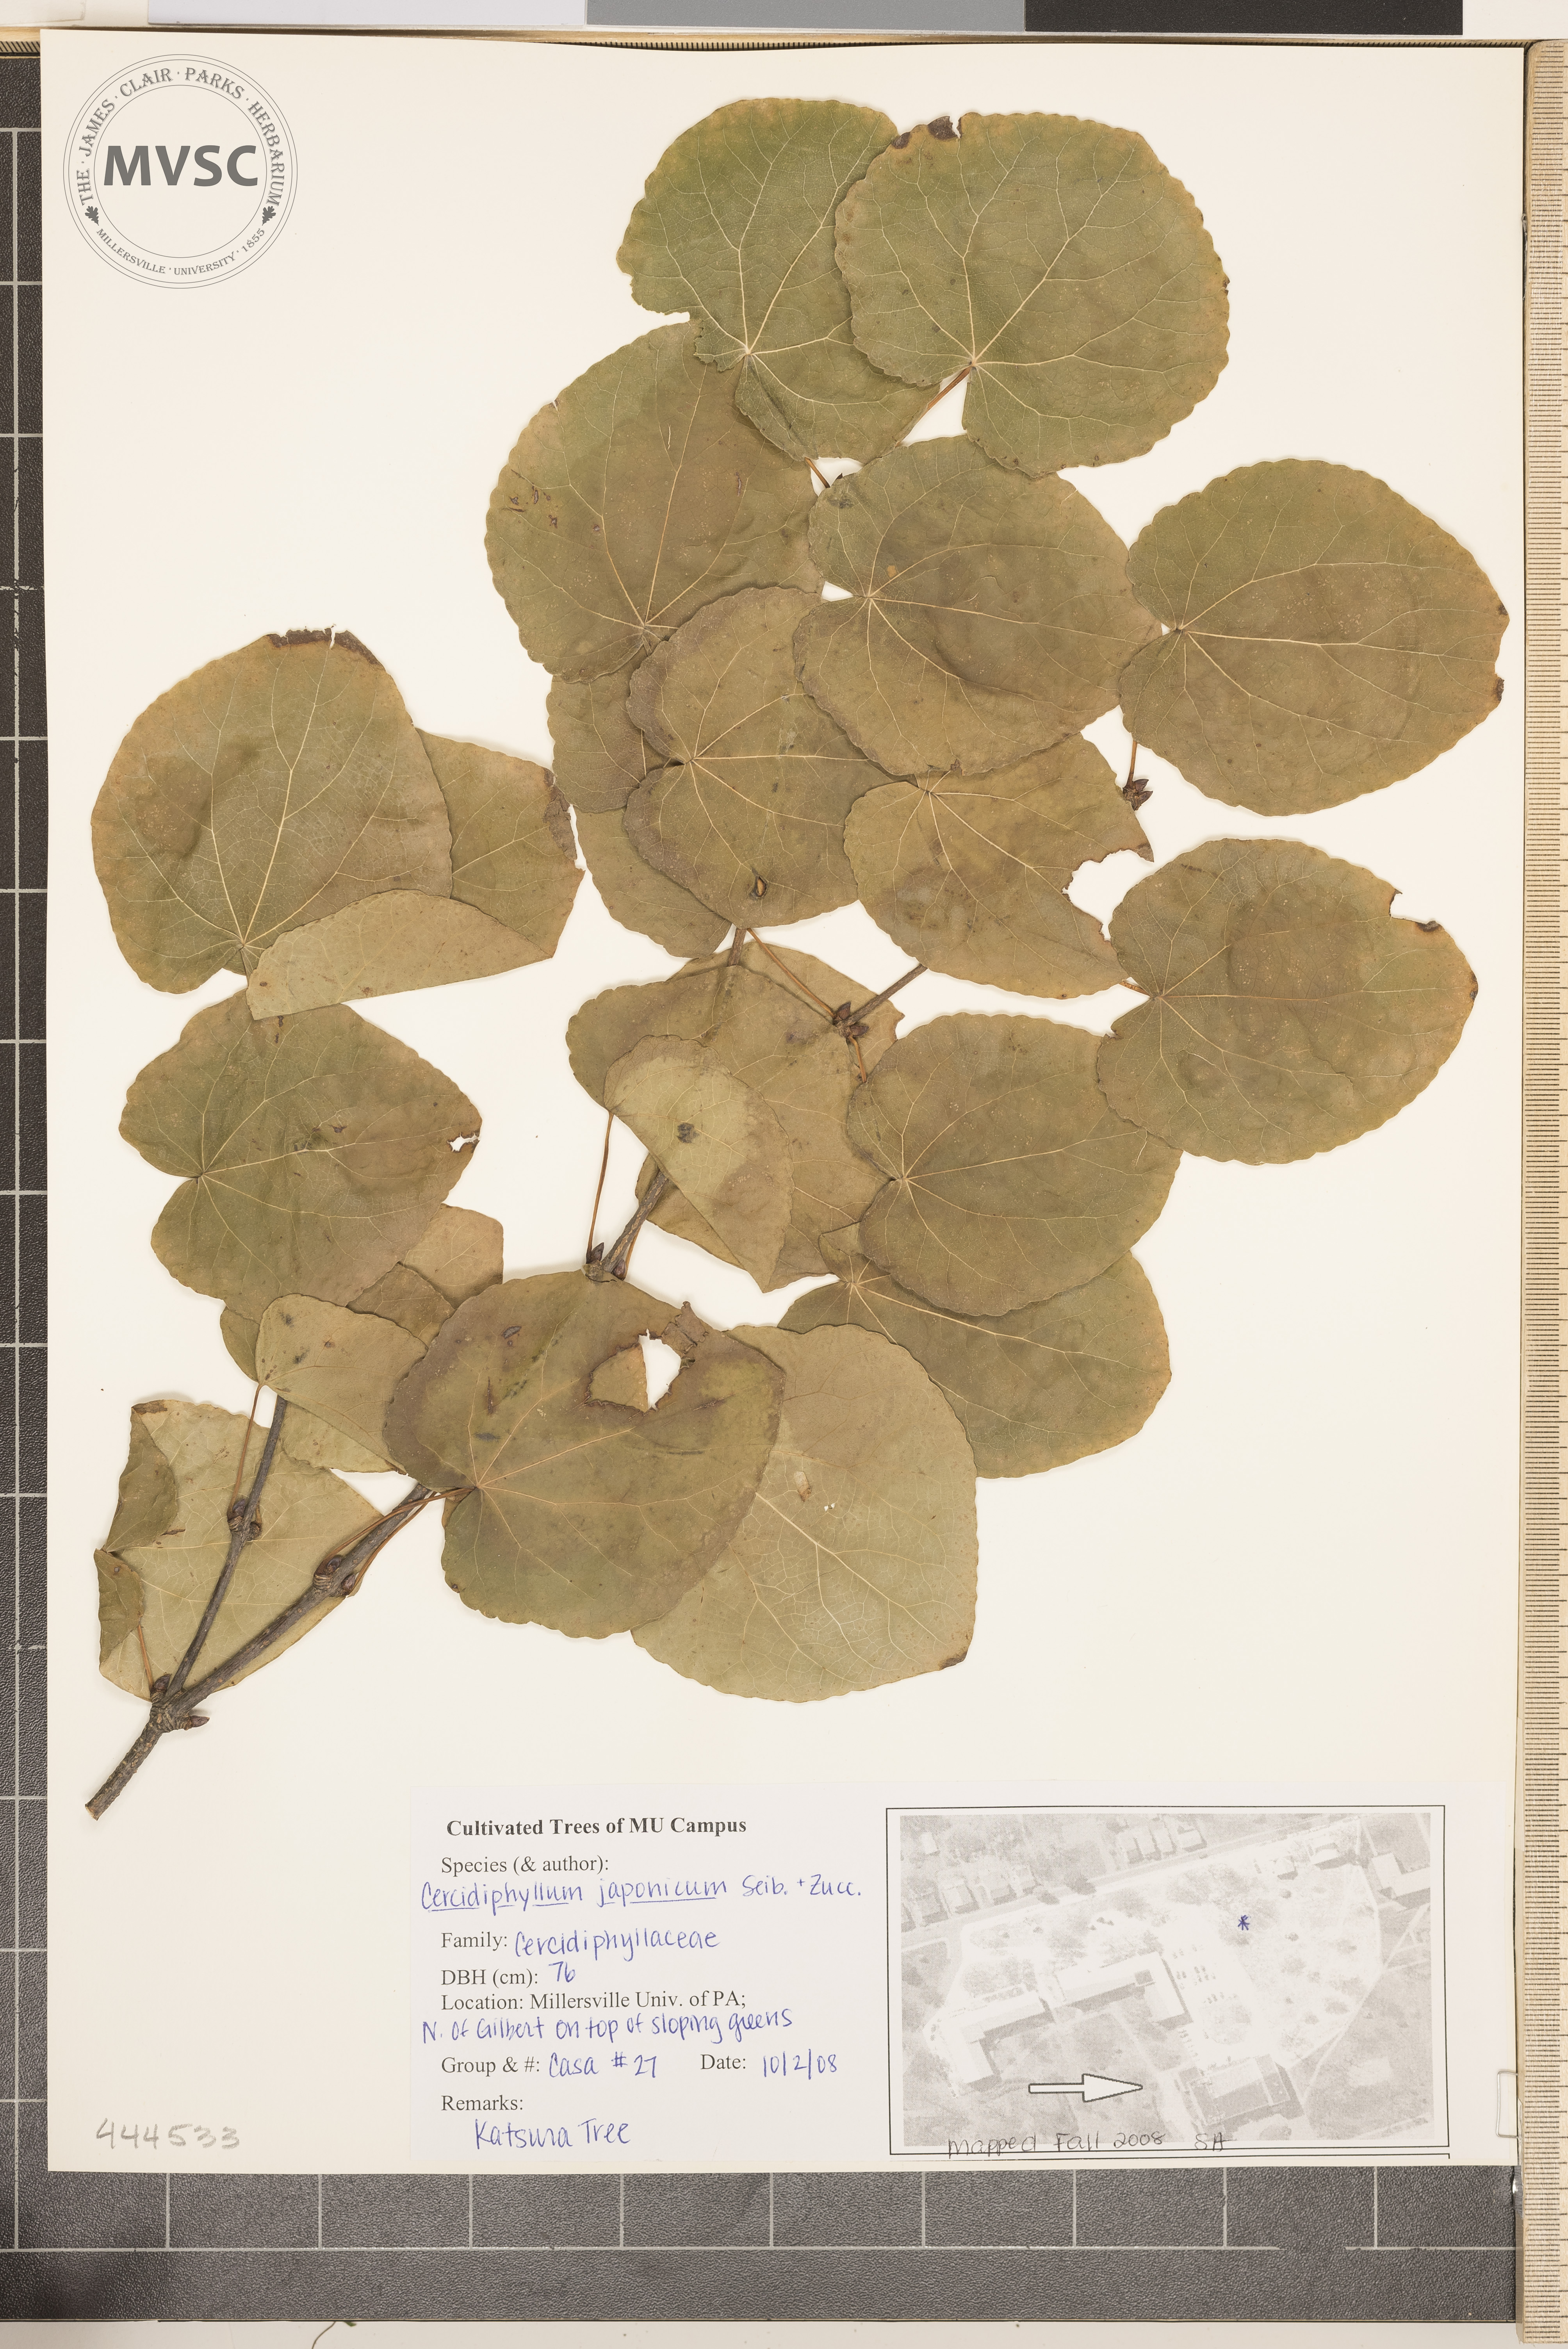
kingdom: Plantae
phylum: Tracheophyta
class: Magnoliopsida
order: Saxifragales
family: Cercidiphyllaceae
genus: Cercidiphyllum
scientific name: Cercidiphyllum japonicum
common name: Katsura Tree
